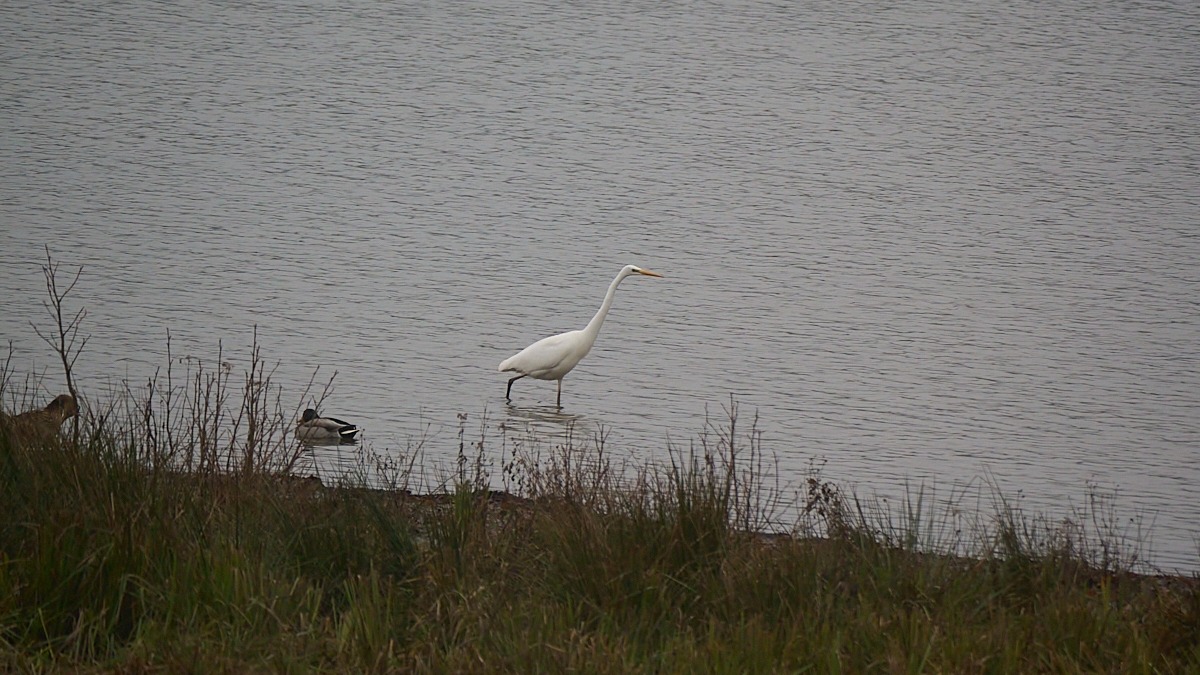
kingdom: Animalia
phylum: Chordata
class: Aves
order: Pelecaniformes
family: Ardeidae
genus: Ardea
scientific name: Ardea alba
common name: Sølvhejre
